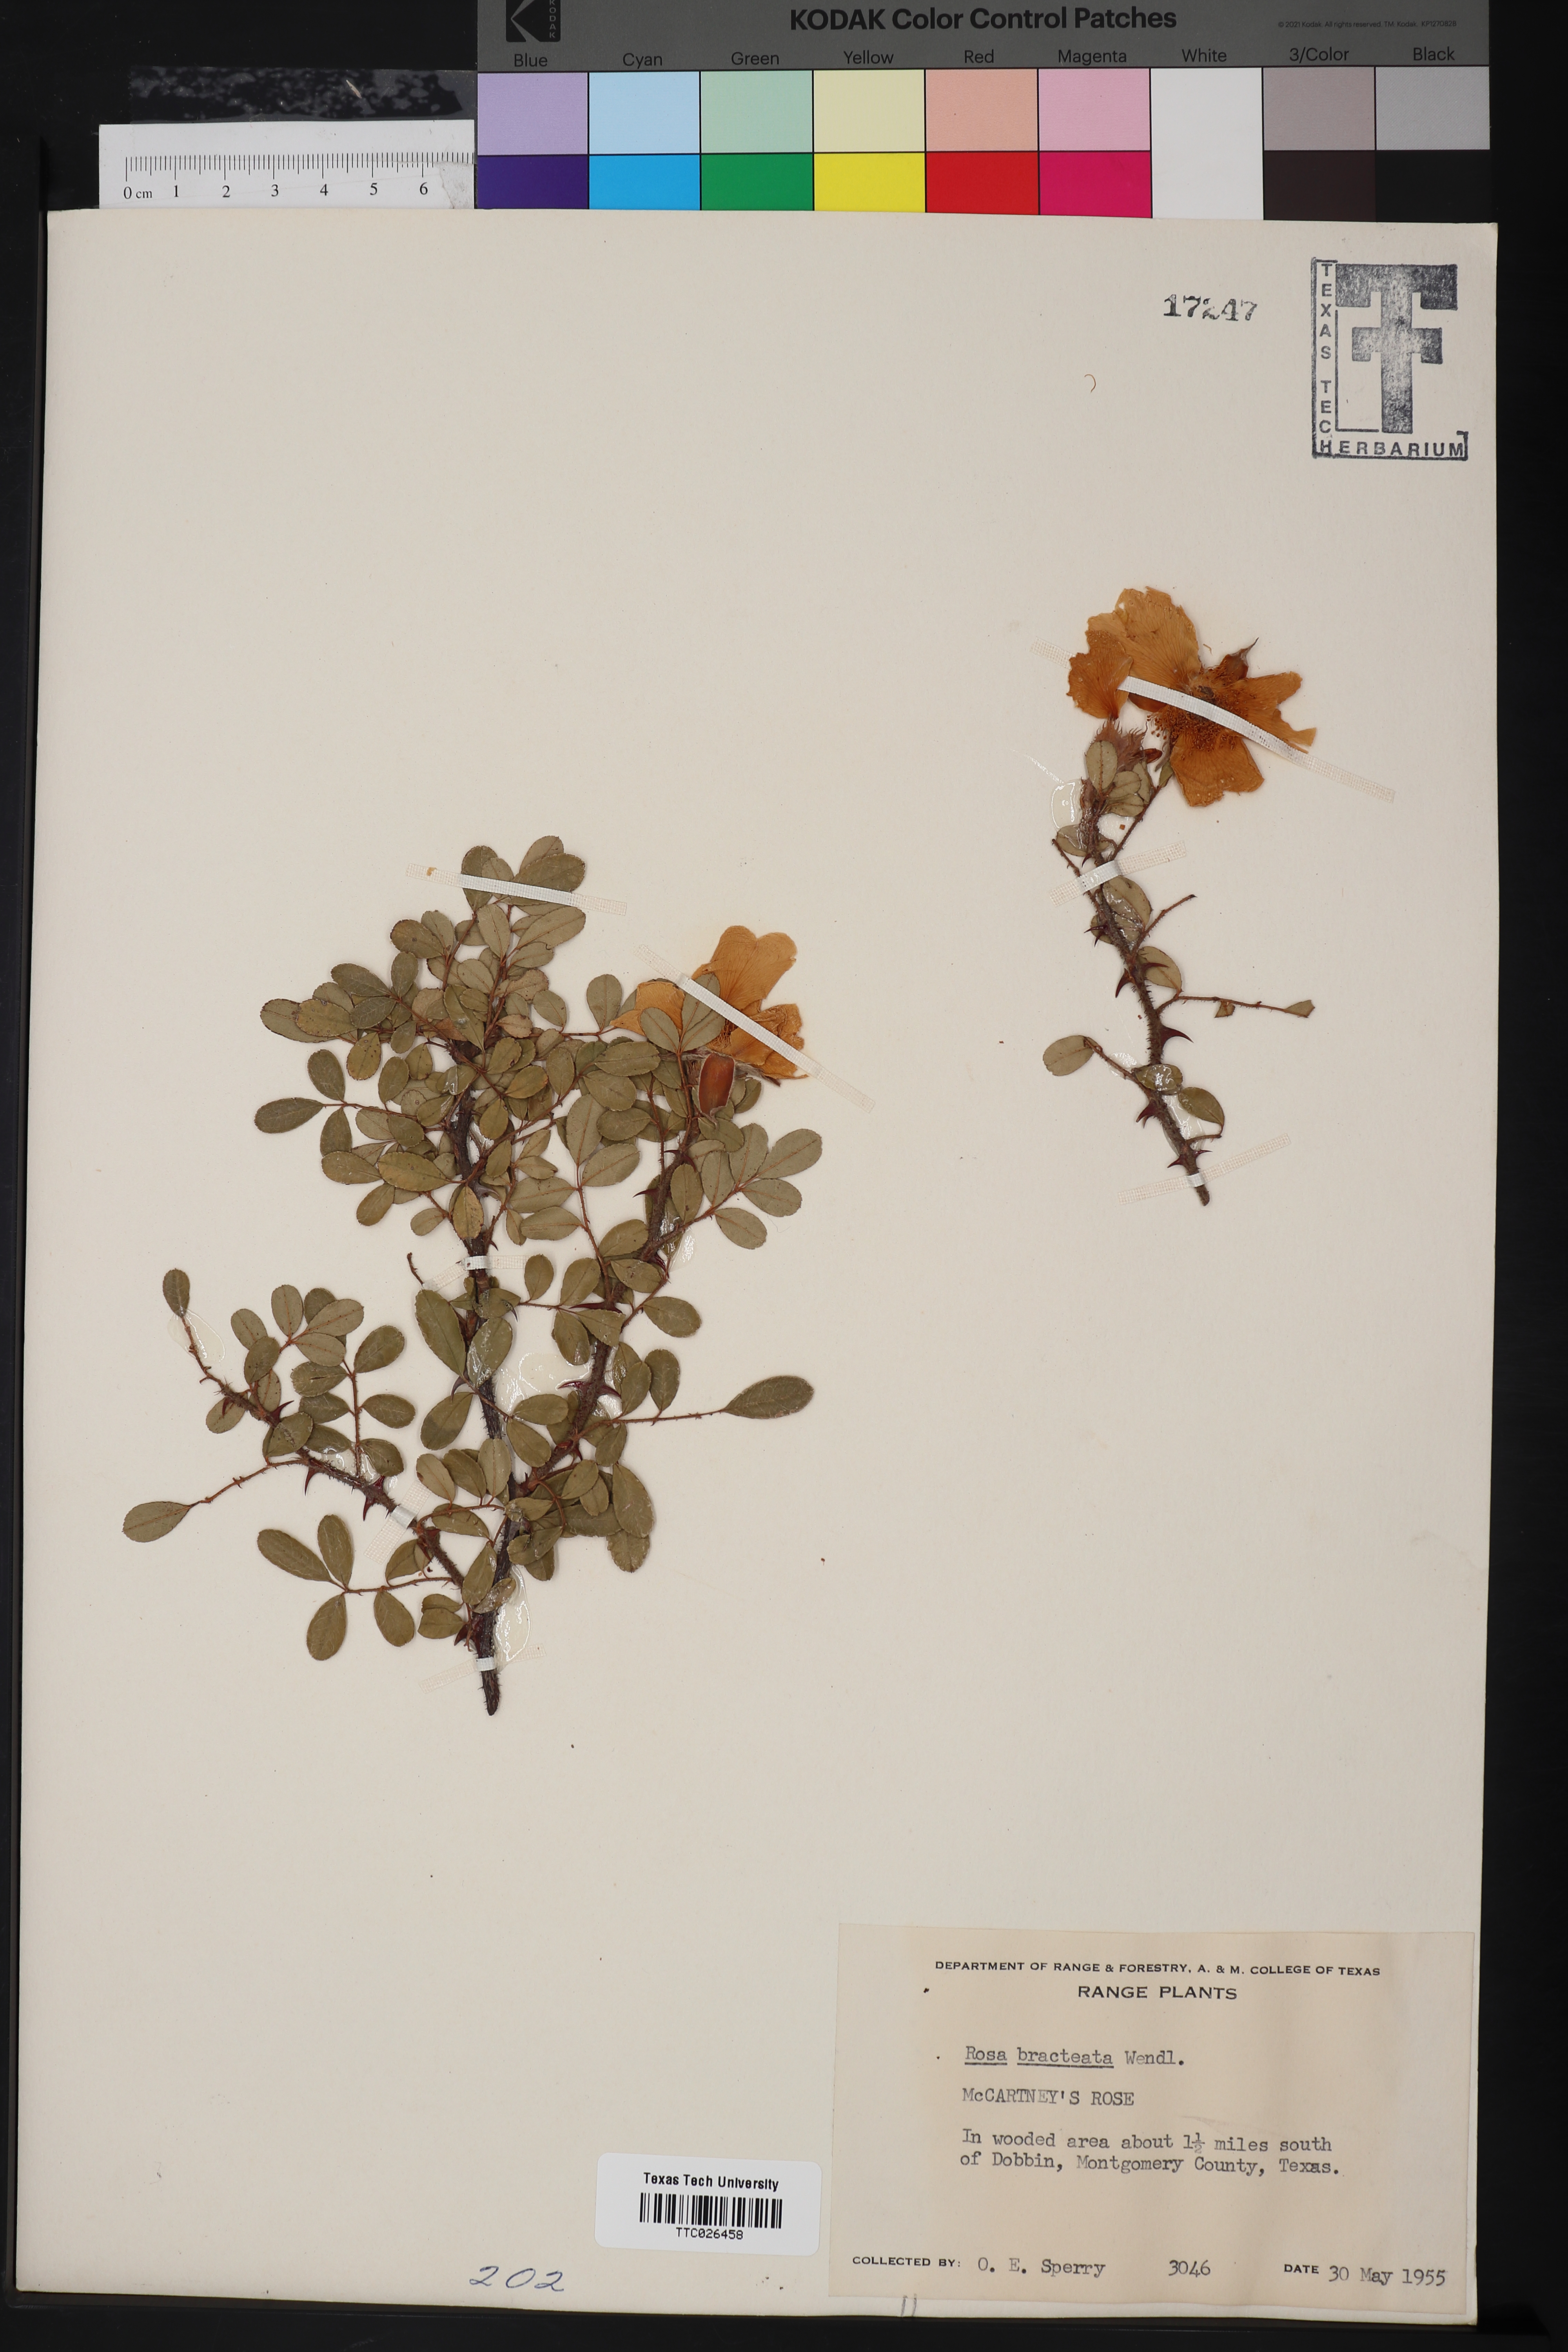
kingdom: Plantae
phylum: Tracheophyta
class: Magnoliopsida
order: Rosales
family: Rosaceae
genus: Rosa
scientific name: Rosa bracteata
